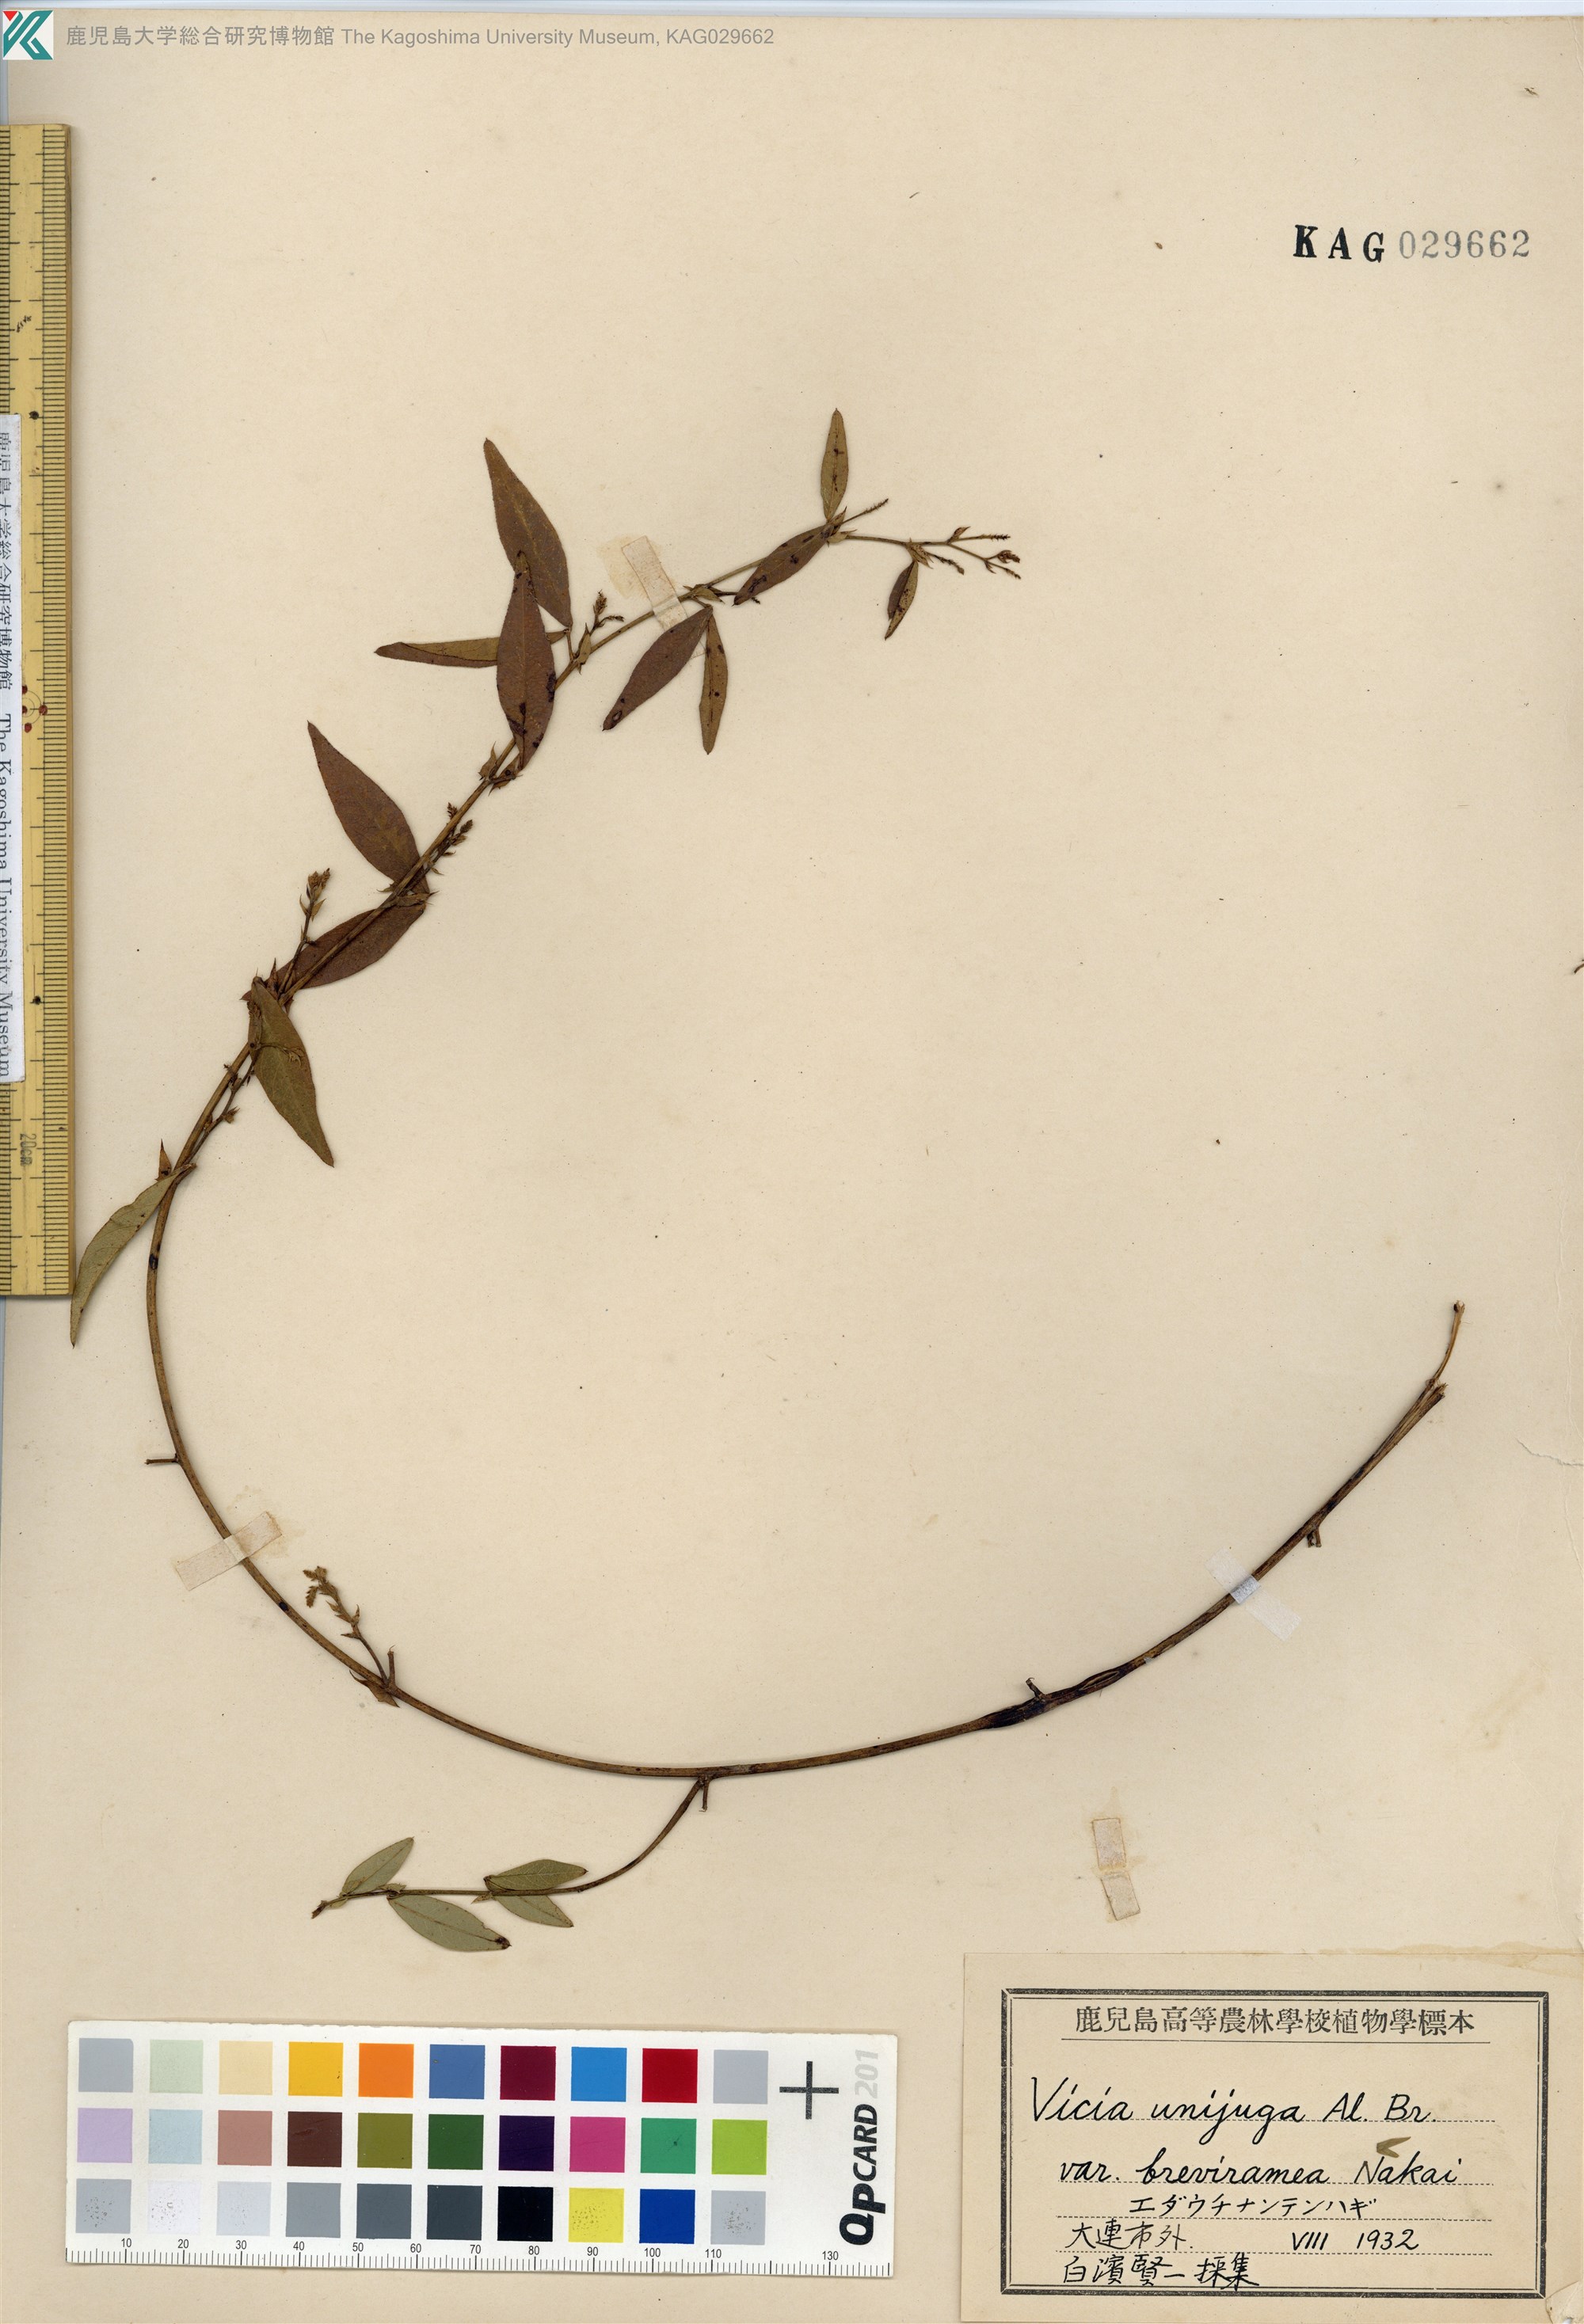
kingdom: Plantae
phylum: Tracheophyta
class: Magnoliopsida
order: Fabales
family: Fabaceae
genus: Vicia
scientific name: Vicia unijuga
